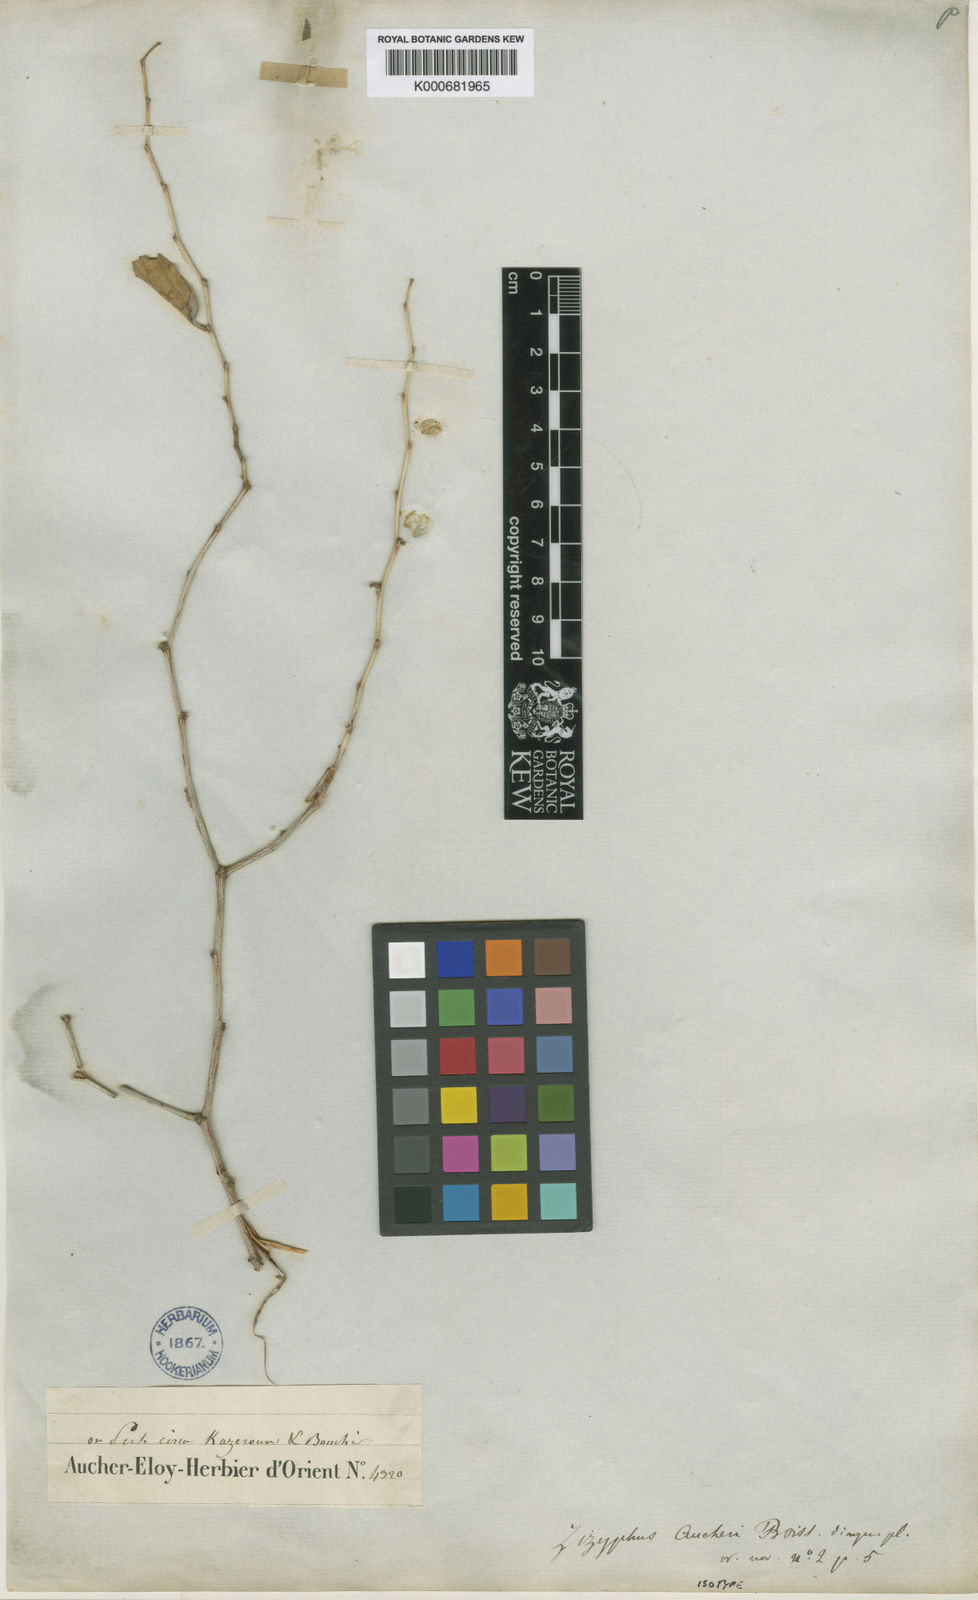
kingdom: Plantae
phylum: Tracheophyta
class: Magnoliopsida
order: Rosales
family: Rhamnaceae
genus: Ziziphus
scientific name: Ziziphus mauritiana
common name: Indian jujube
